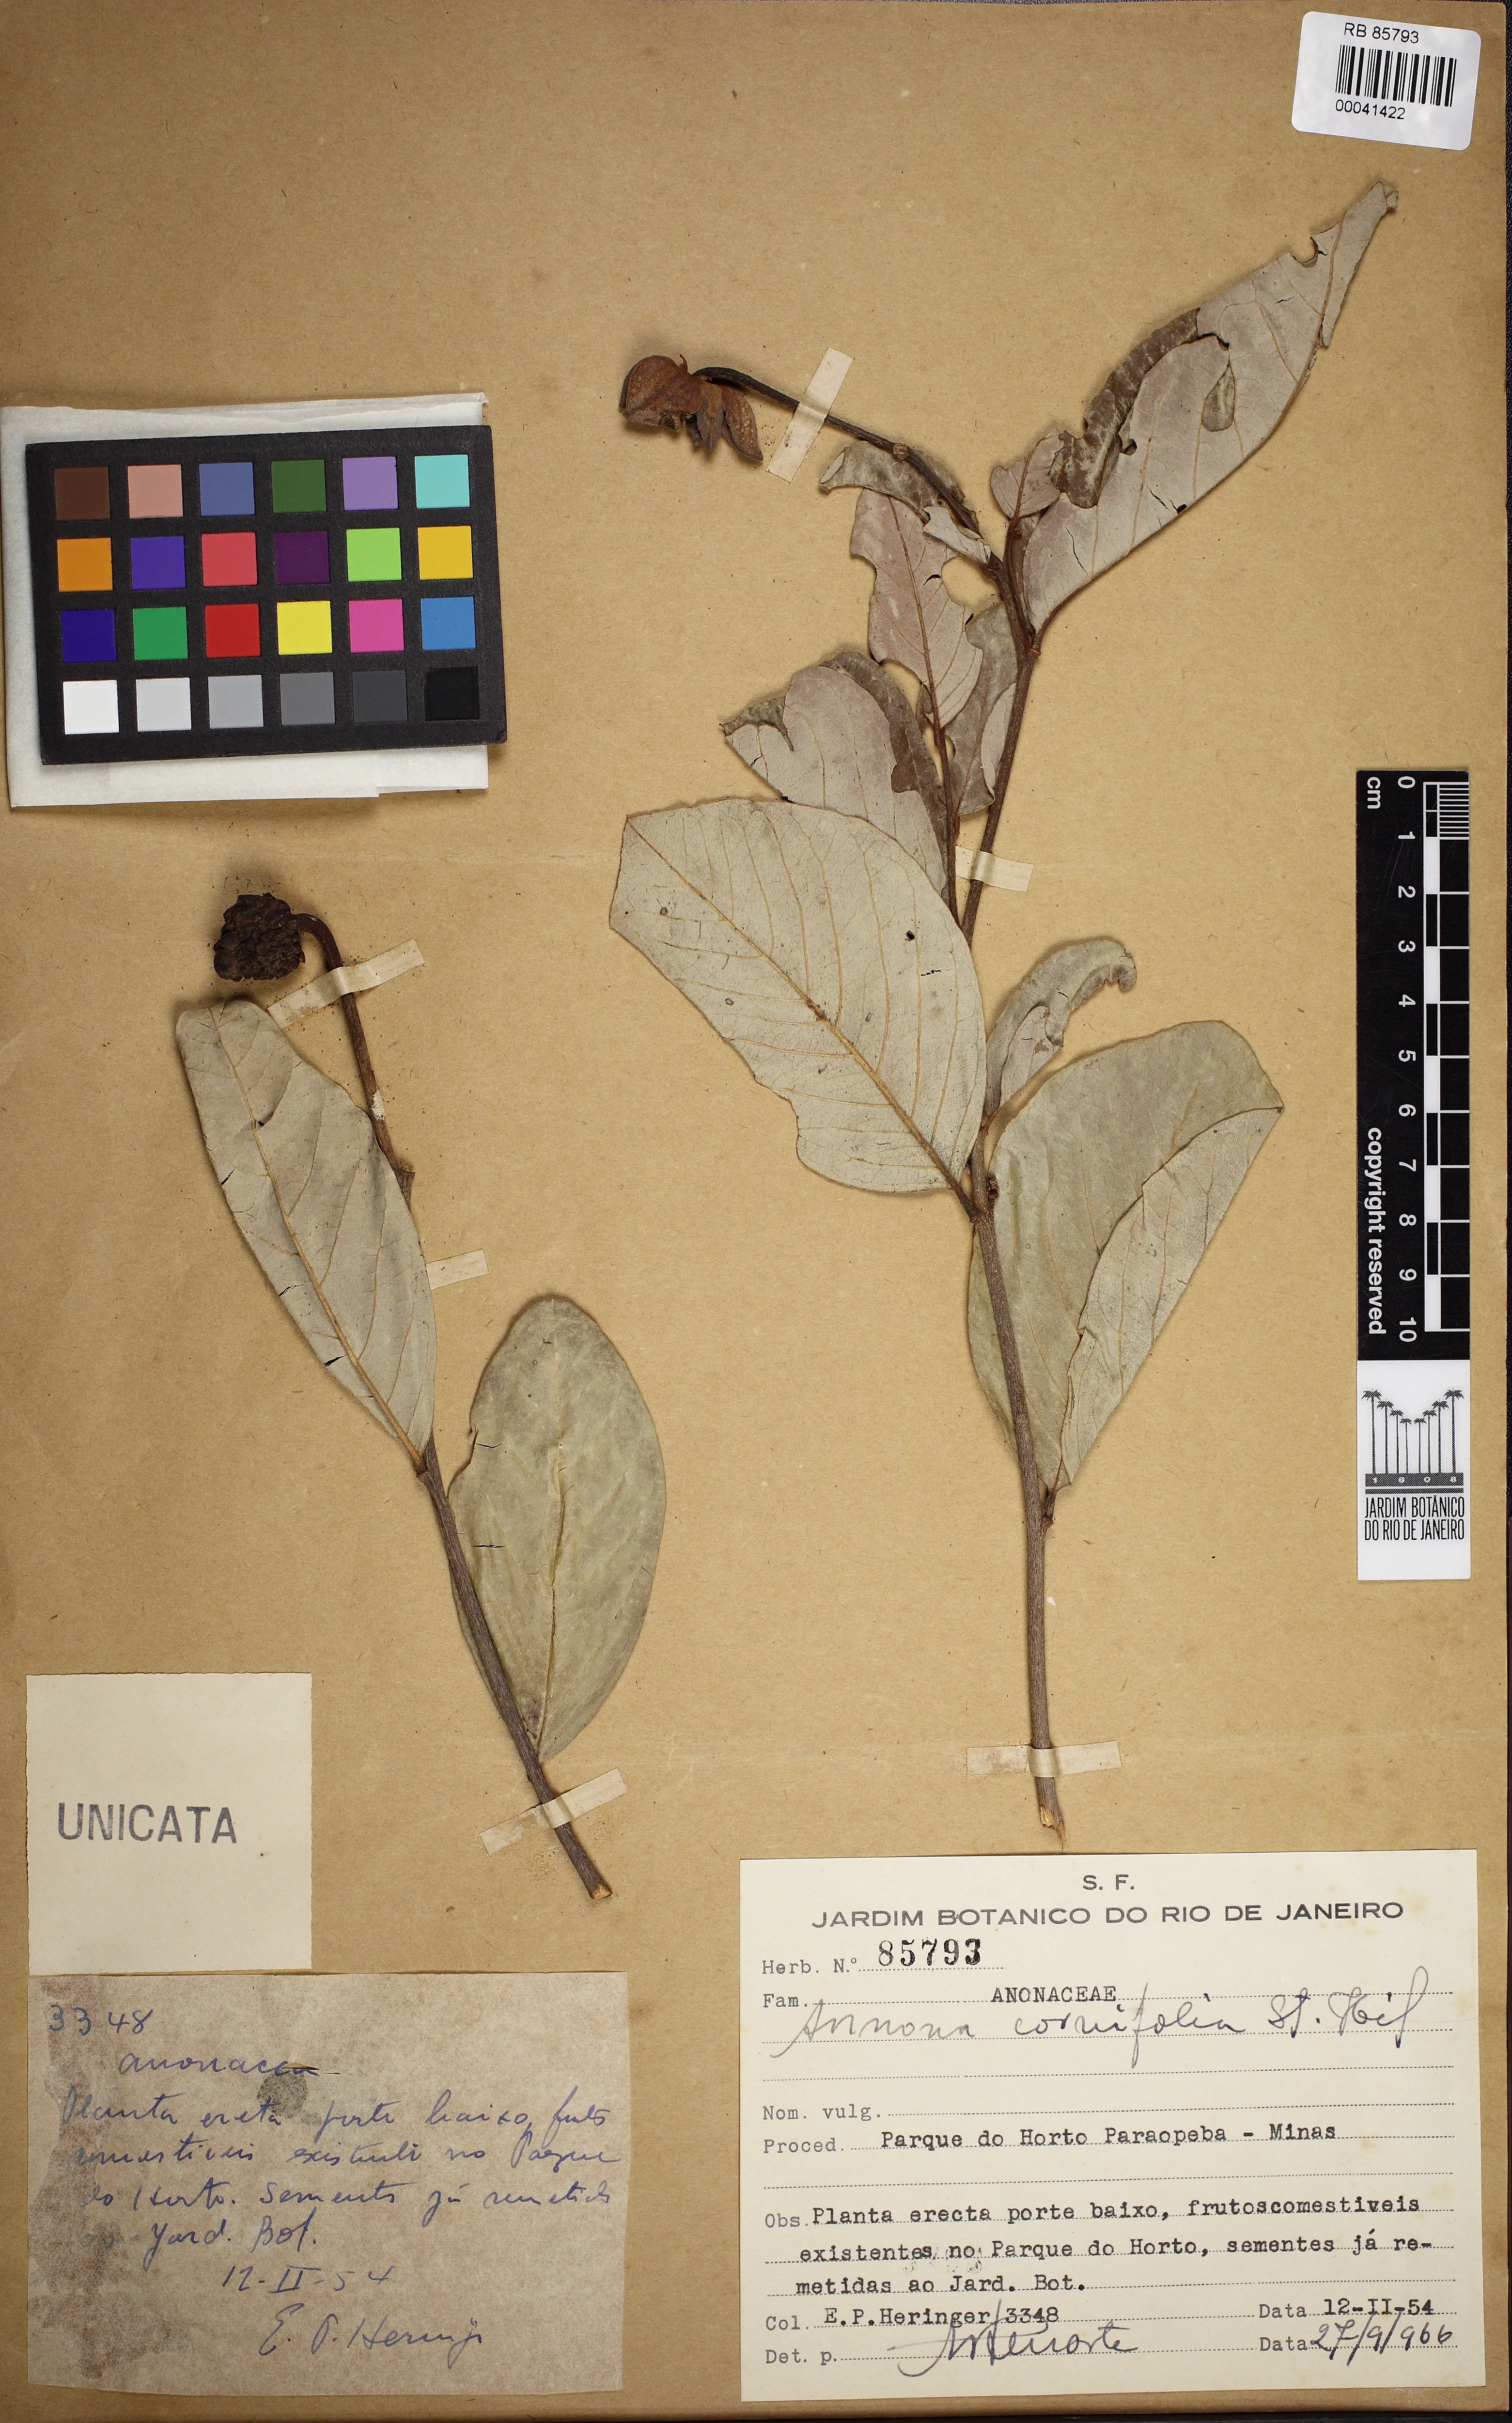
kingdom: Plantae
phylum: Tracheophyta
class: Magnoliopsida
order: Magnoliales
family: Annonaceae
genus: Annona
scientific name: Annona cornifolia
